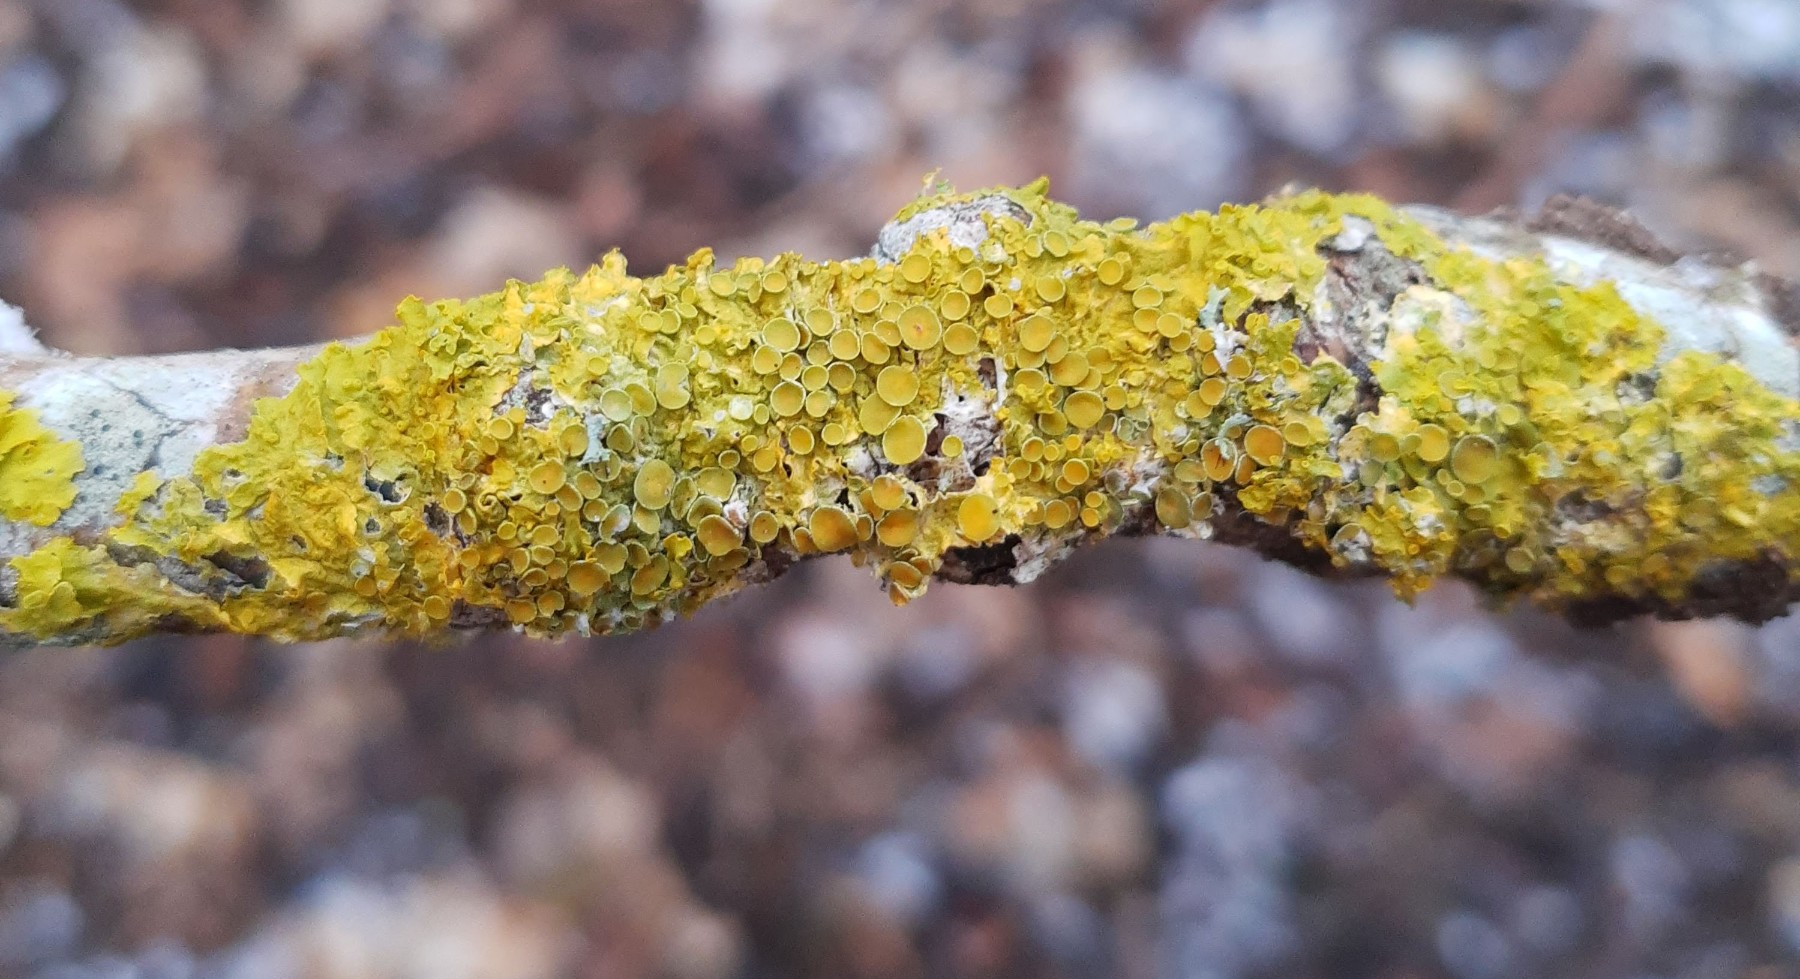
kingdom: Fungi
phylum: Ascomycota
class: Lecanoromycetes
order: Teloschistales
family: Teloschistaceae
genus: Xanthoria
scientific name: Xanthoria parietina
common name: almindelig væggelav
